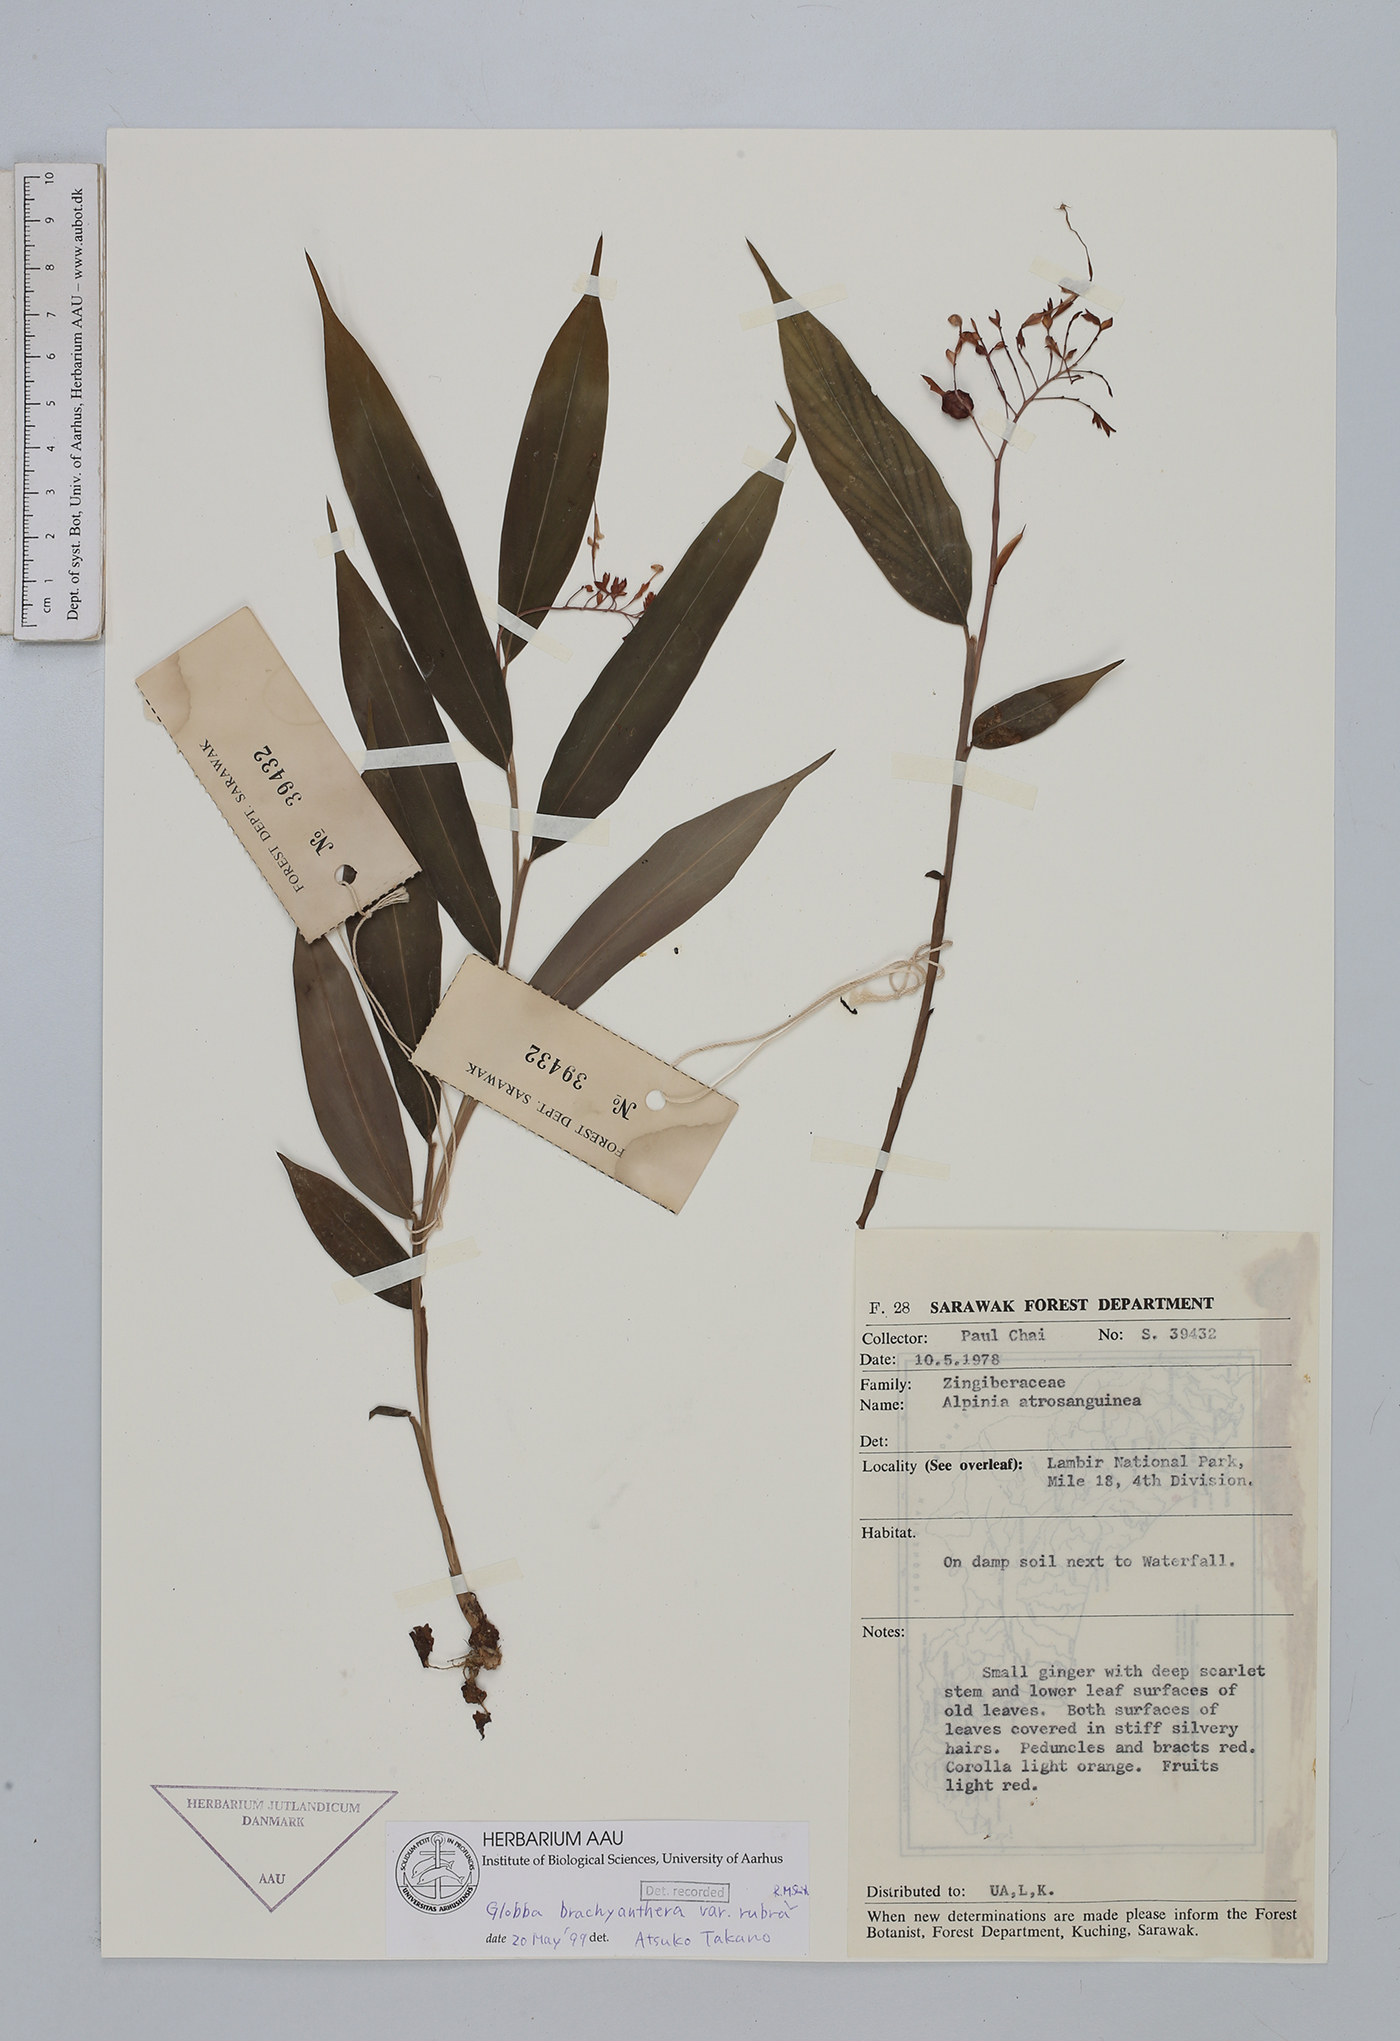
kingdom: Plantae
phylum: Tracheophyta
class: Liliopsida
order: Zingiberales
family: Zingiberaceae
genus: Globba
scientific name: Globba brachyanthera
